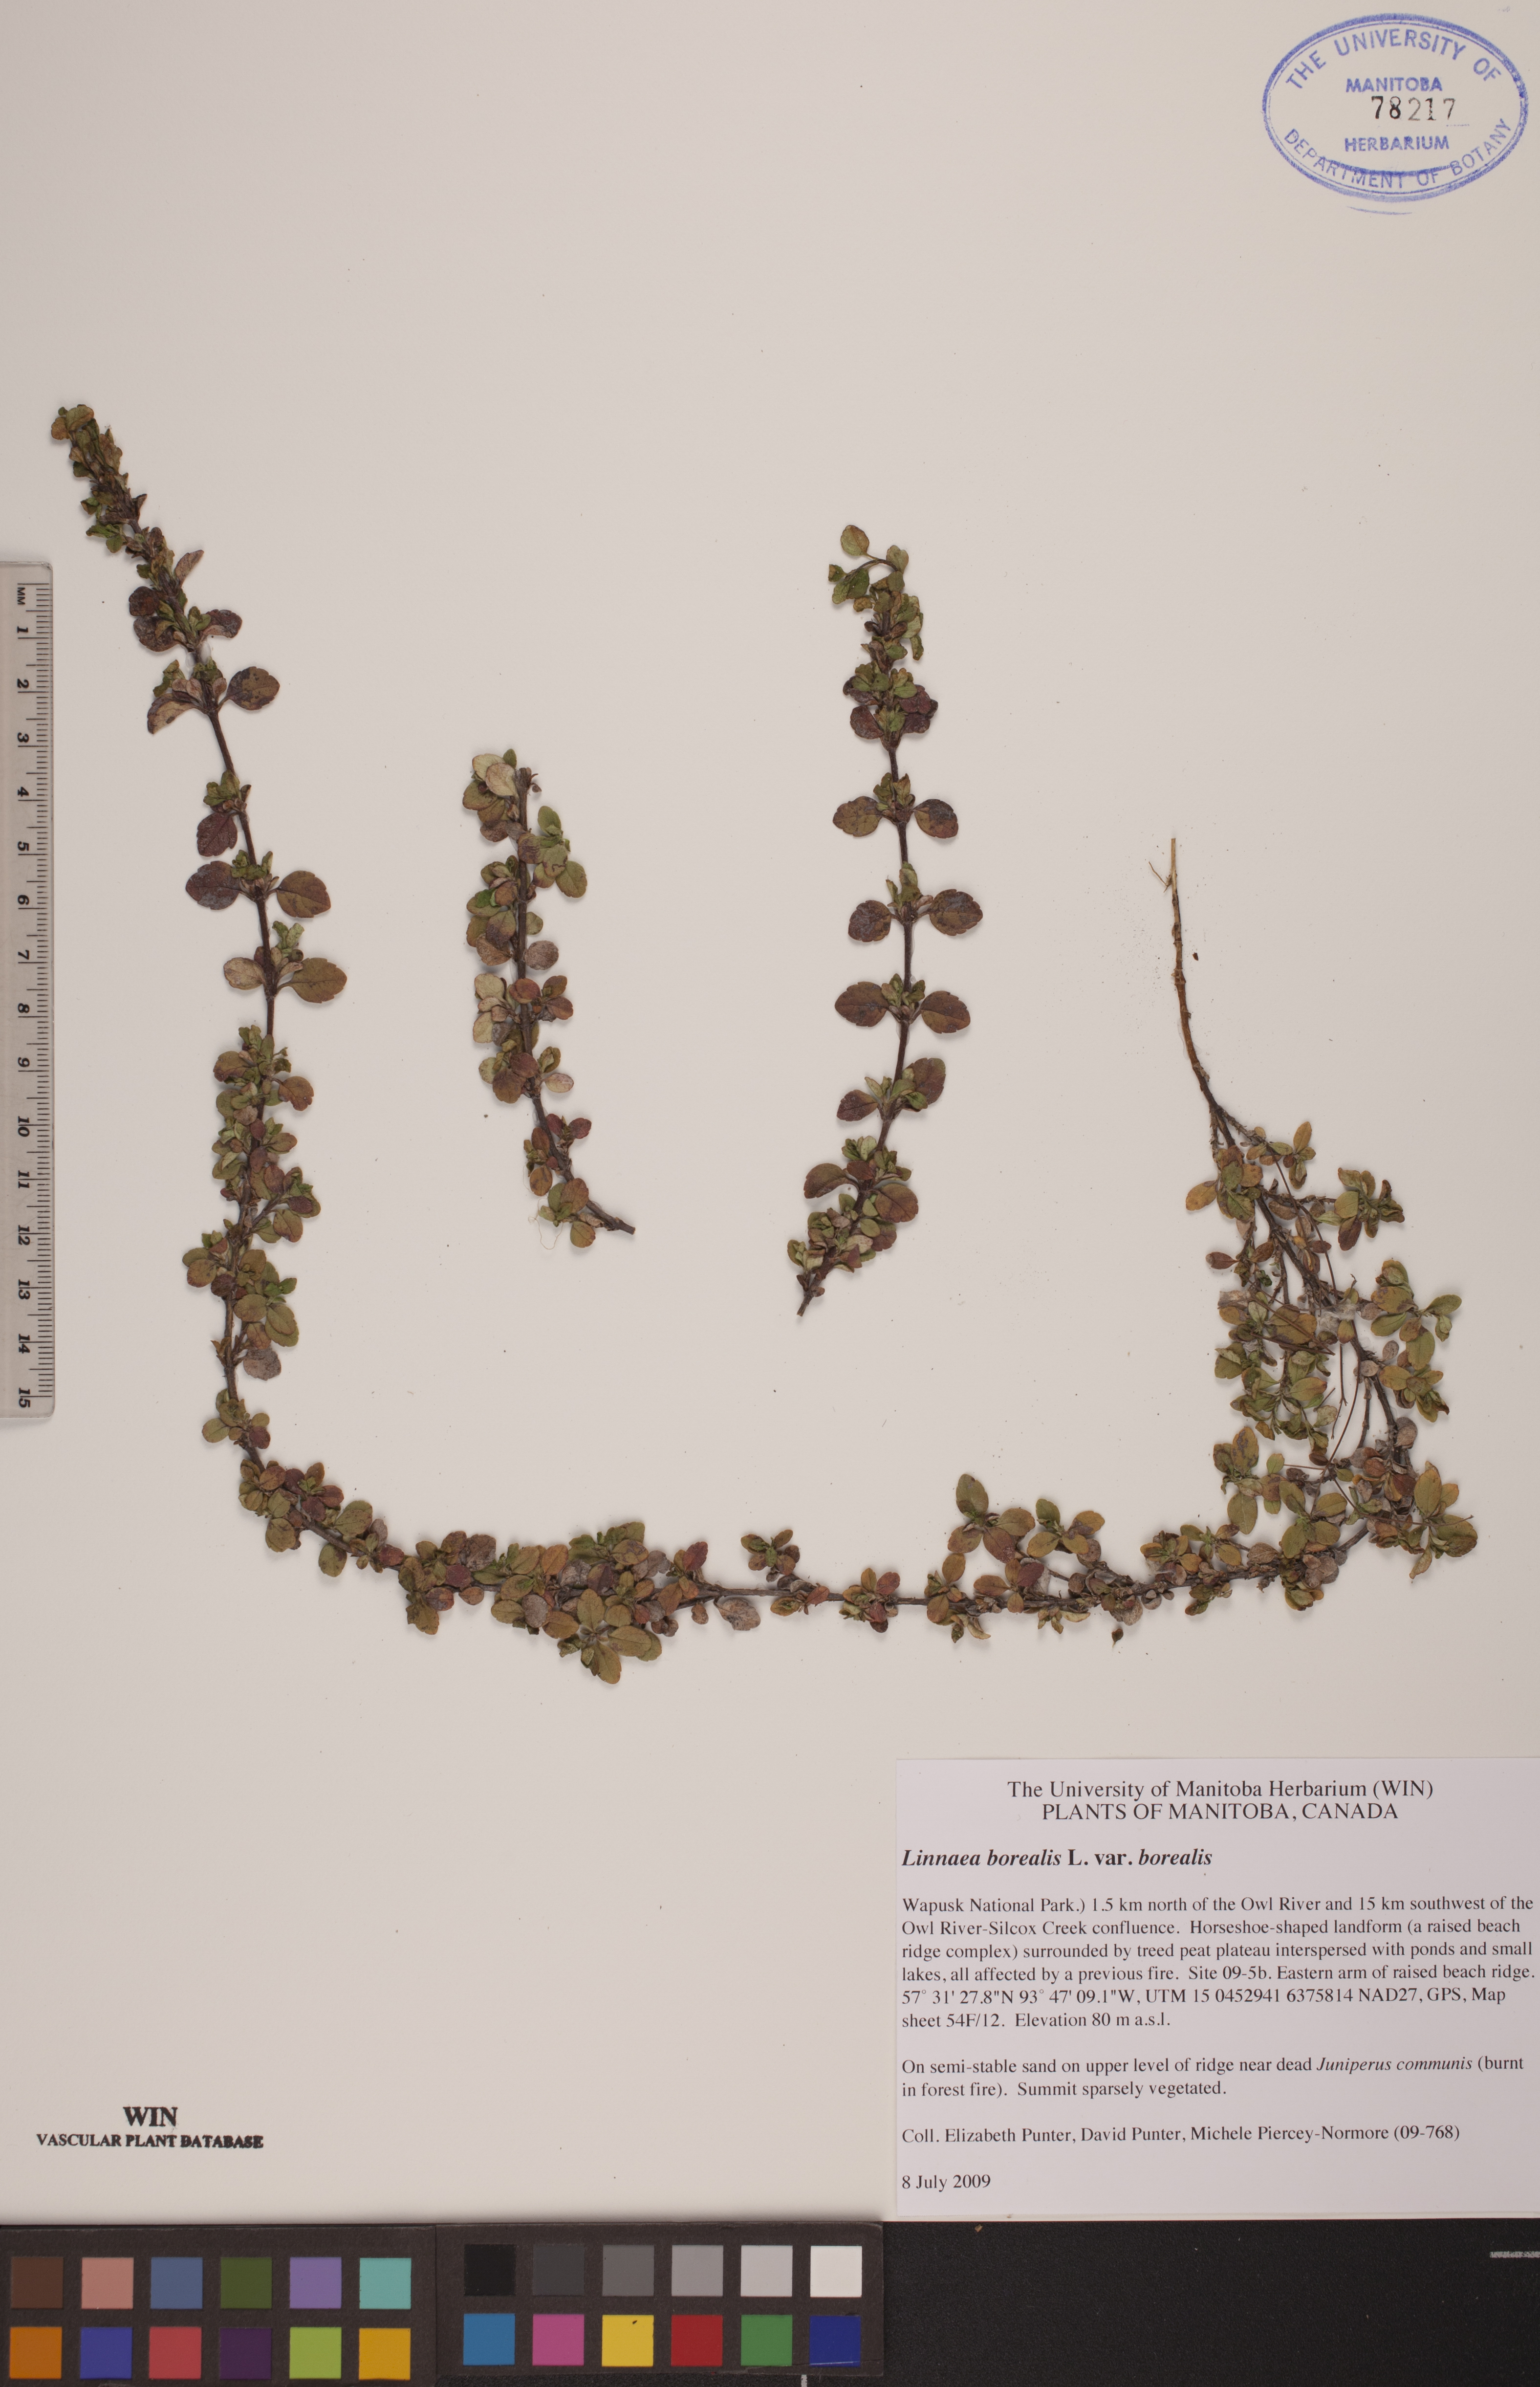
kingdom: Plantae
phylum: Tracheophyta
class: Magnoliopsida
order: Dipsacales
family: Caprifoliaceae
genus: Linnaea
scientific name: Linnaea borealis
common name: Twinflower
